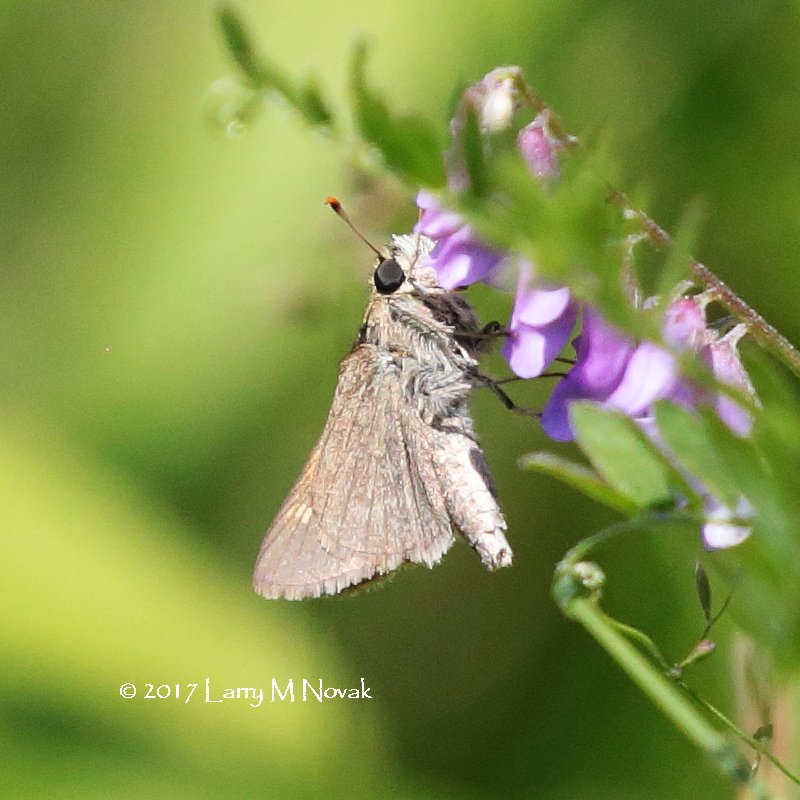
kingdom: Animalia
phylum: Arthropoda
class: Insecta
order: Lepidoptera
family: Hesperiidae
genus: Polites
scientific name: Polites themistocles
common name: Tawny-edged Skipper
